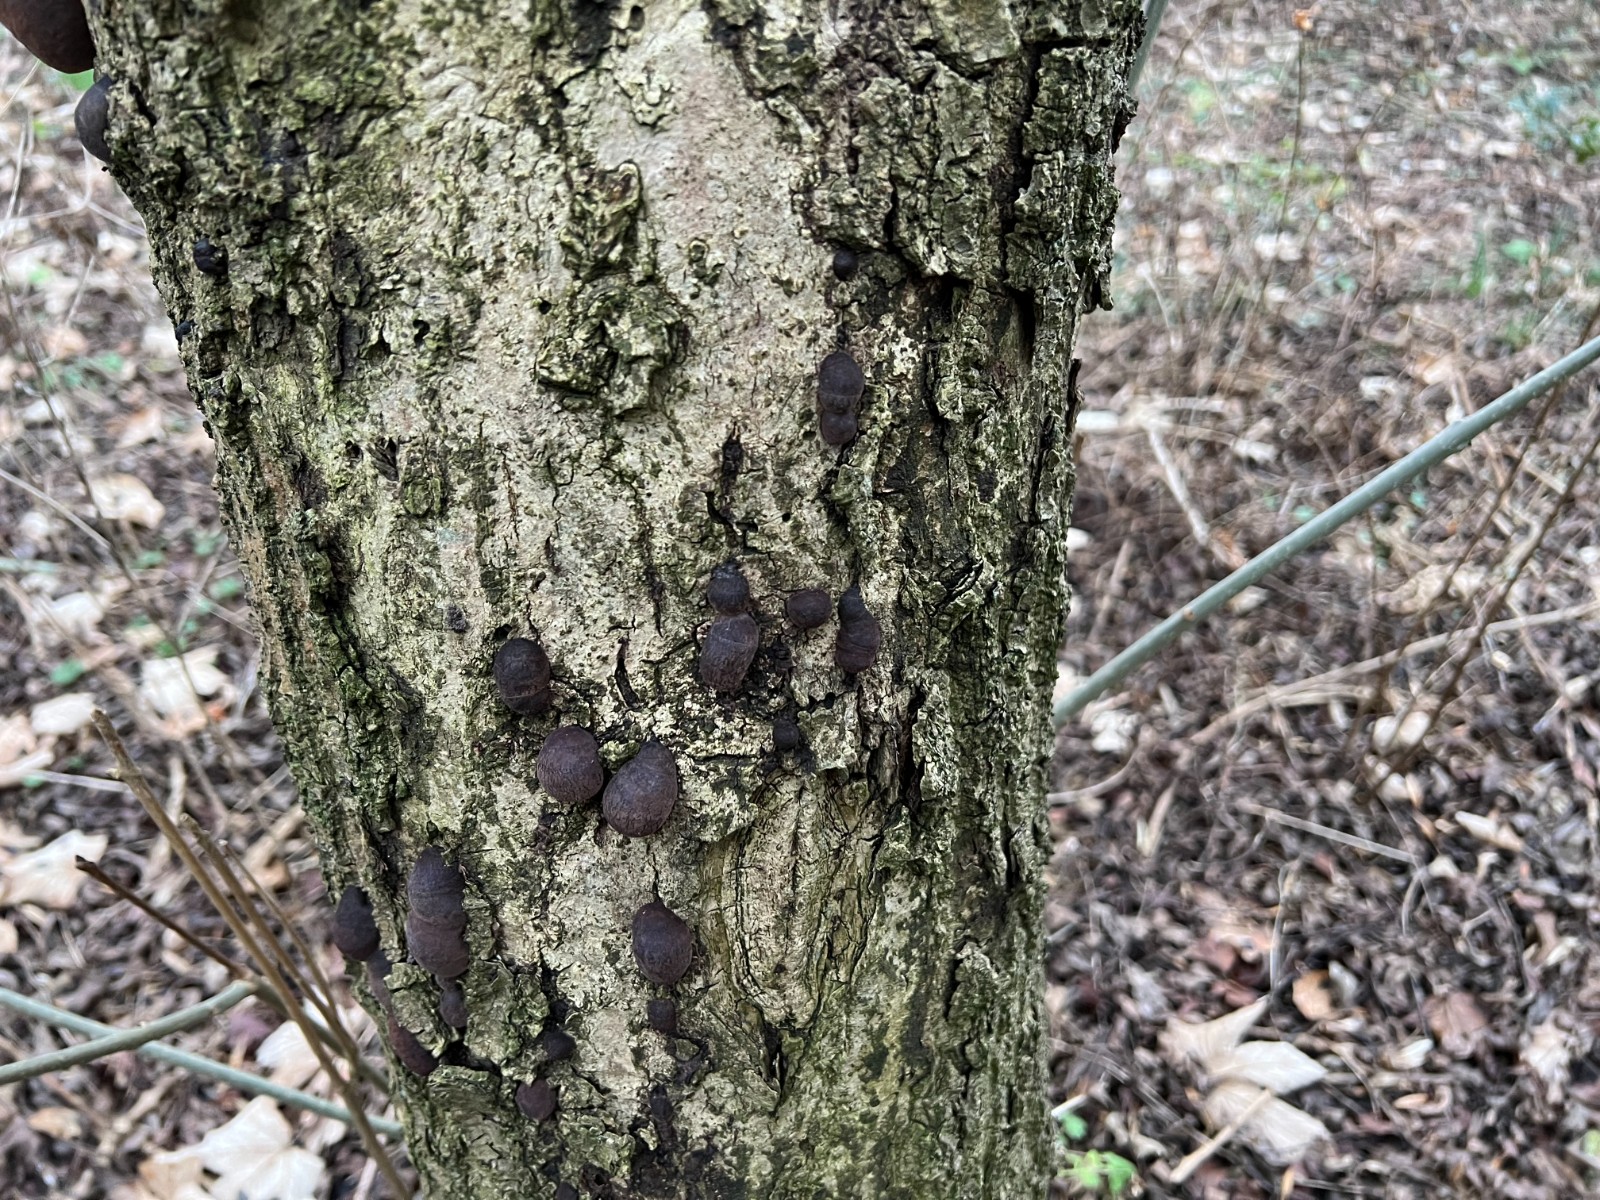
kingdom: Fungi
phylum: Ascomycota
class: Sordariomycetes
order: Xylariales
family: Hypoxylaceae
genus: Daldinia
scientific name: Daldinia concentrica
